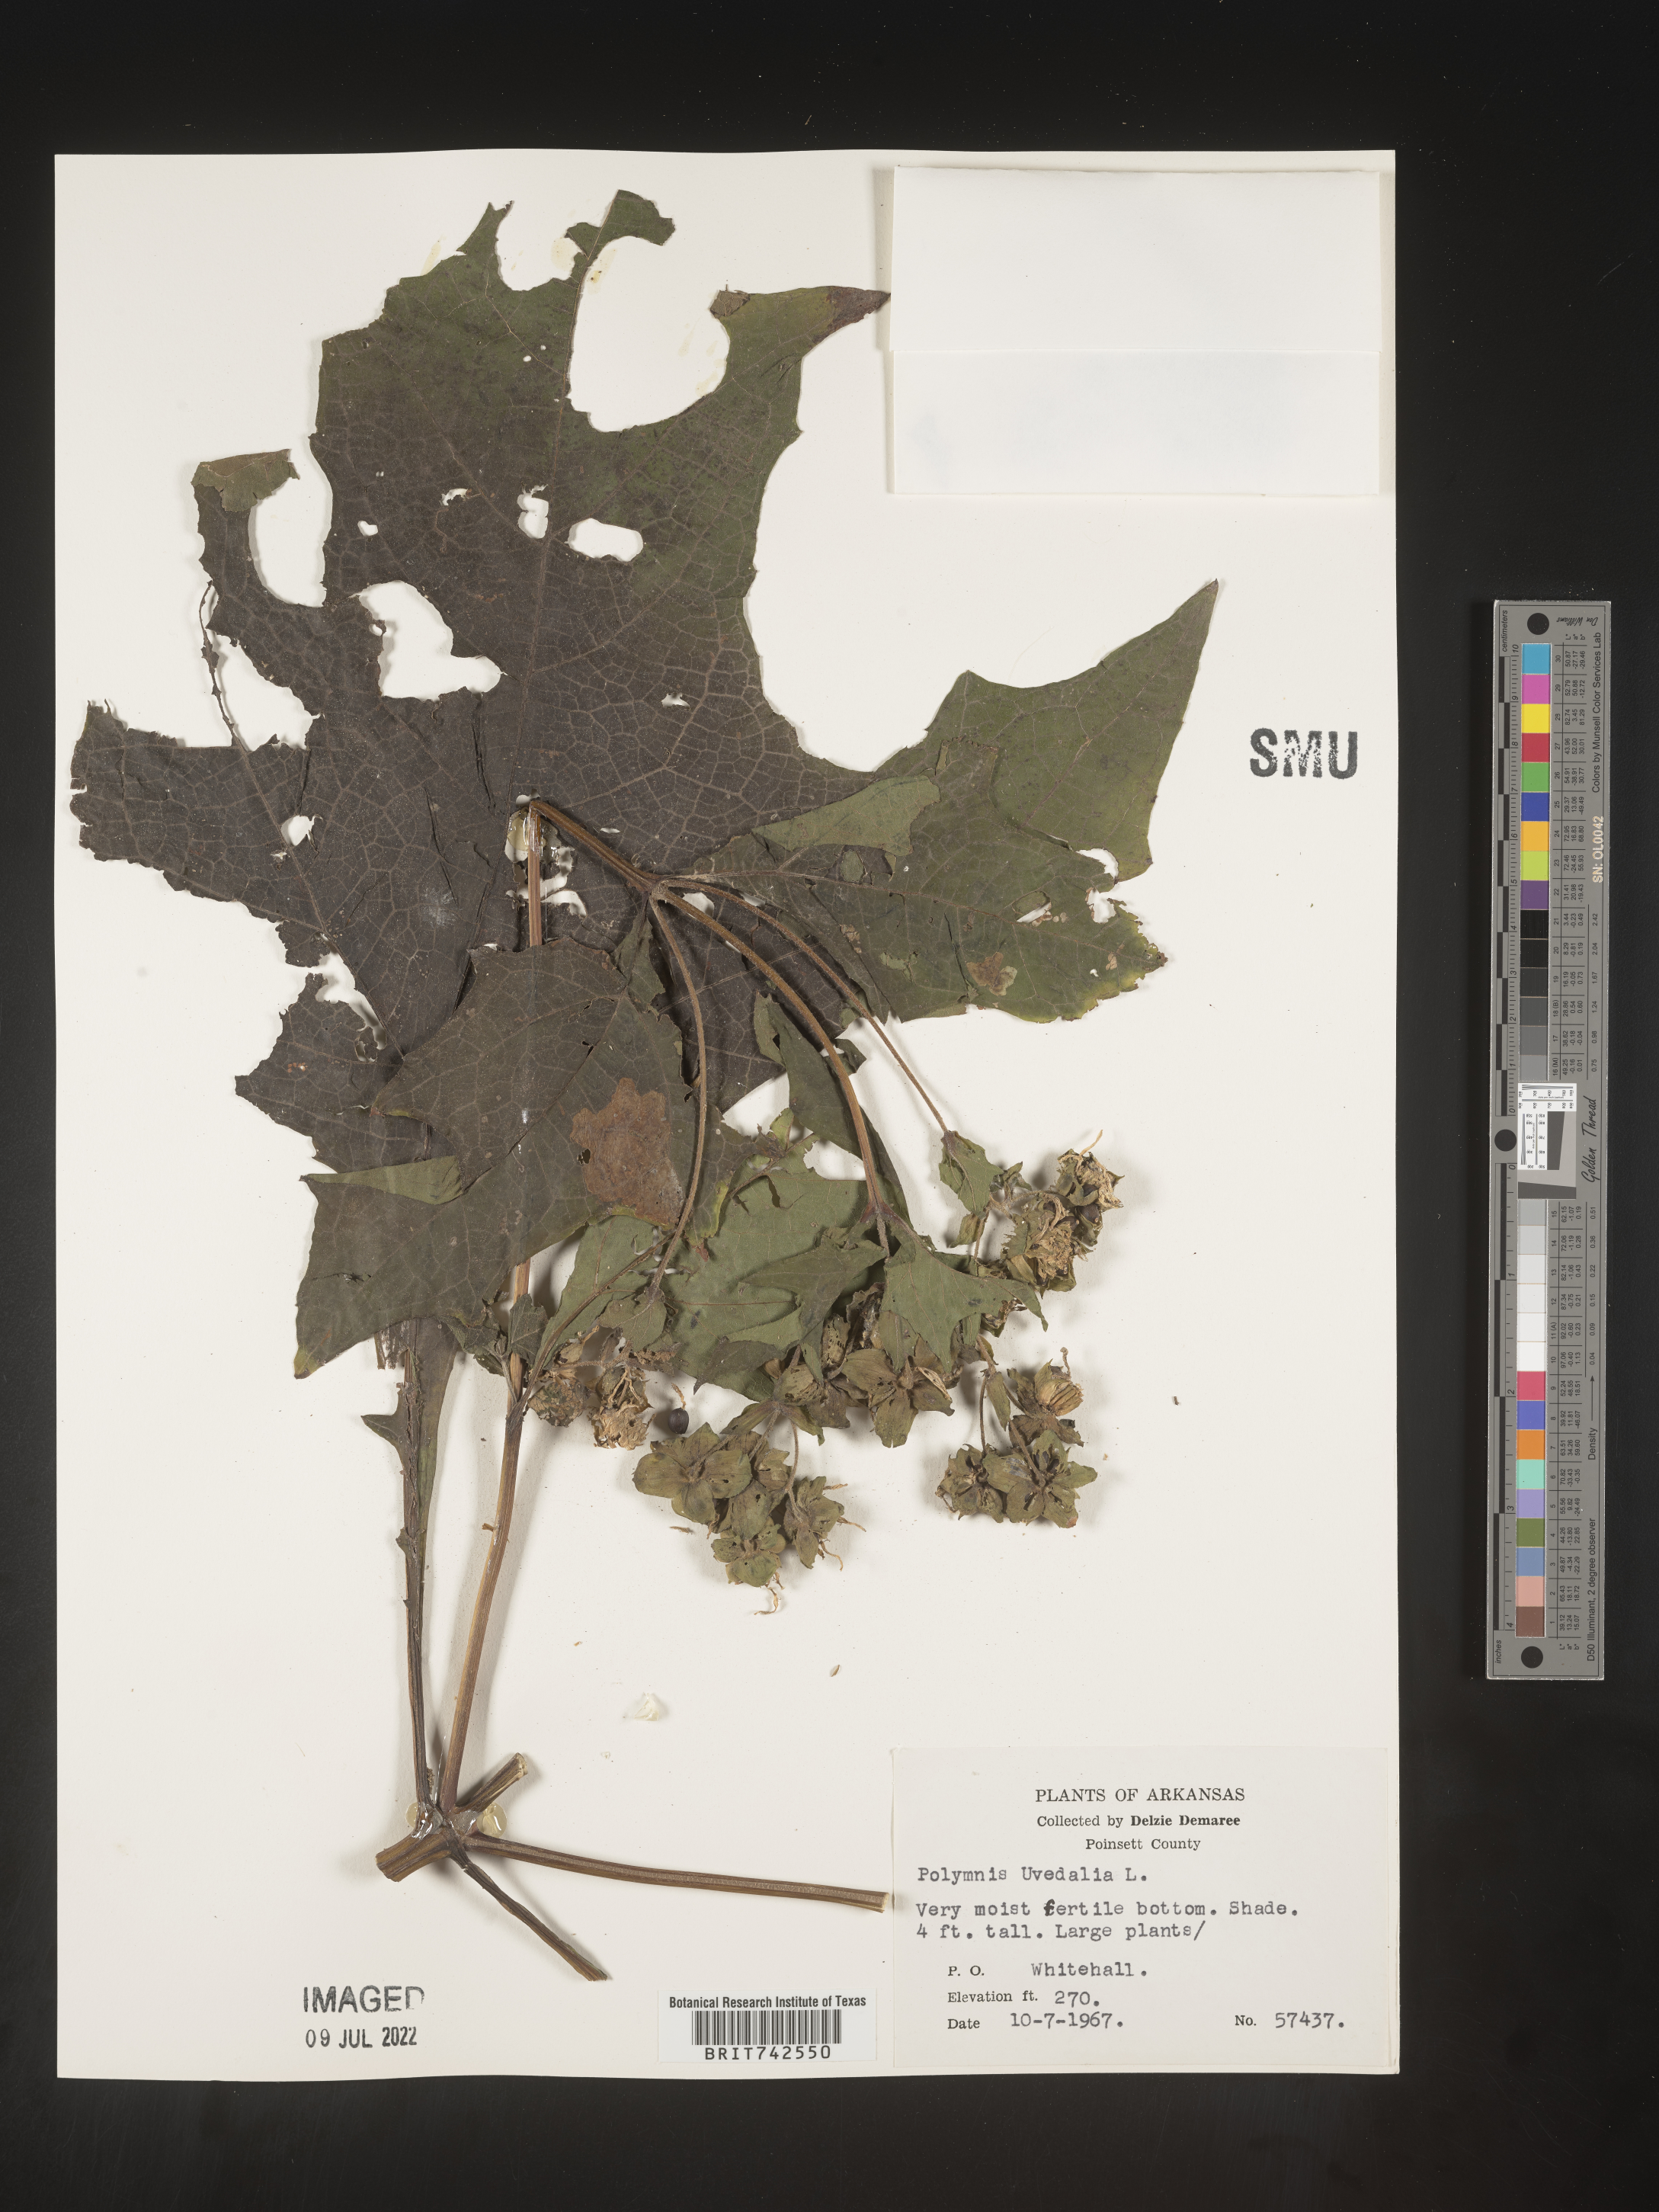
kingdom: Plantae
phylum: Tracheophyta
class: Magnoliopsida
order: Asterales
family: Asteraceae
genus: Smallanthus
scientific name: Smallanthus uvedalia
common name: Bear's-foot
